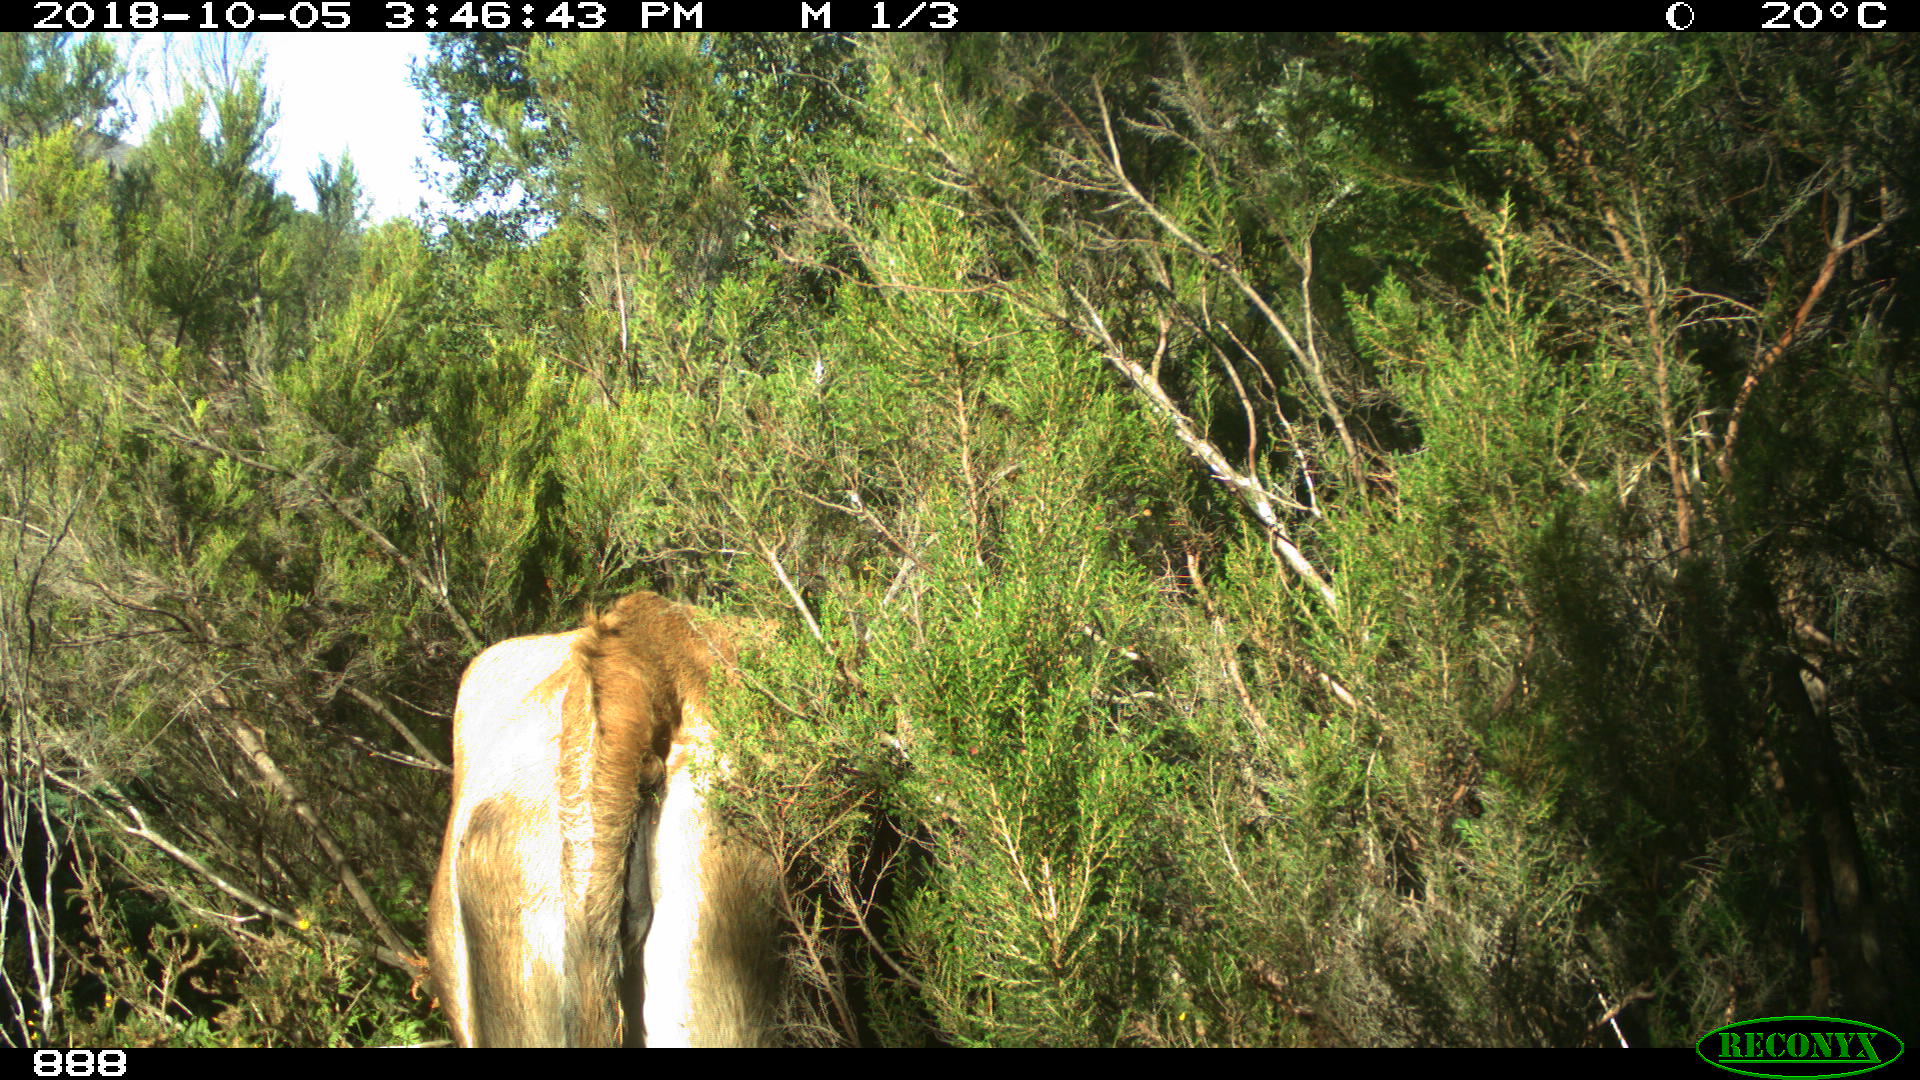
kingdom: Animalia
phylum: Chordata
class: Mammalia
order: Artiodactyla
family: Bovidae
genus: Bos
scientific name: Bos taurus
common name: Domesticated cattle
